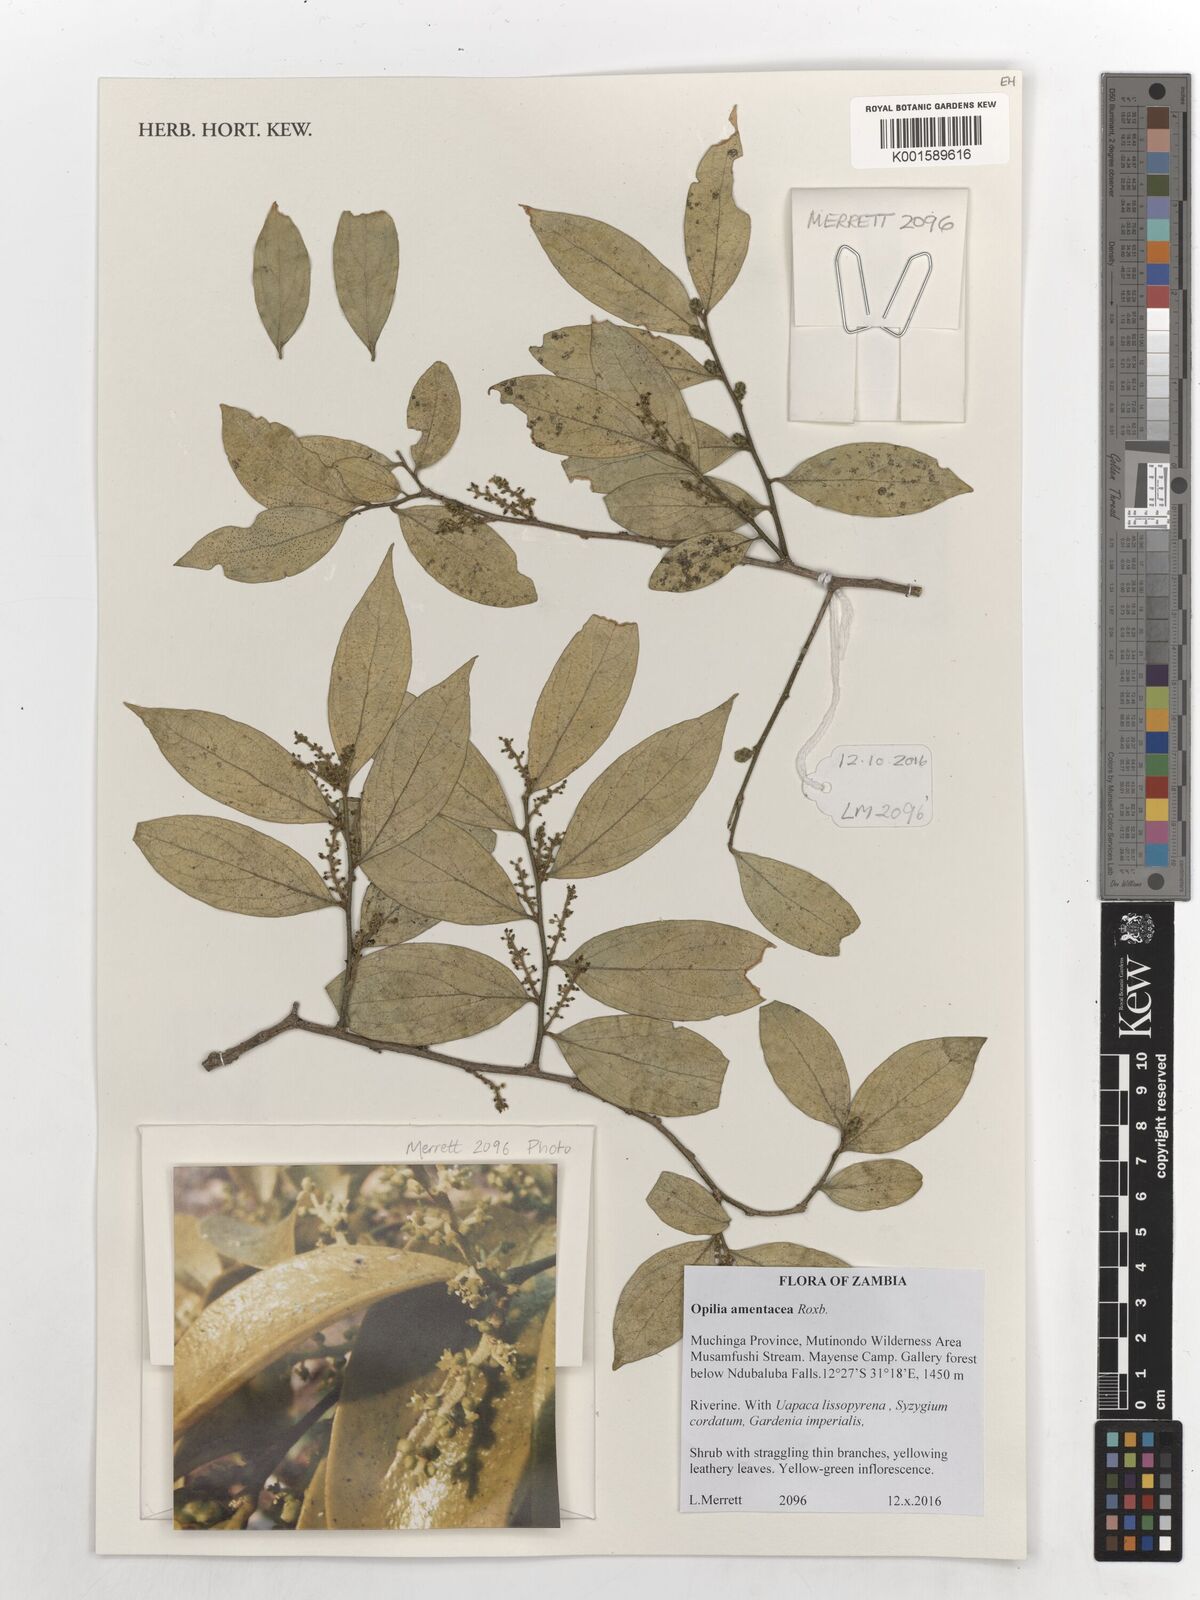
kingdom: Plantae
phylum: Tracheophyta
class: Magnoliopsida
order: Santalales
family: Opiliaceae
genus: Opilia
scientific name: Opilia amentacea
